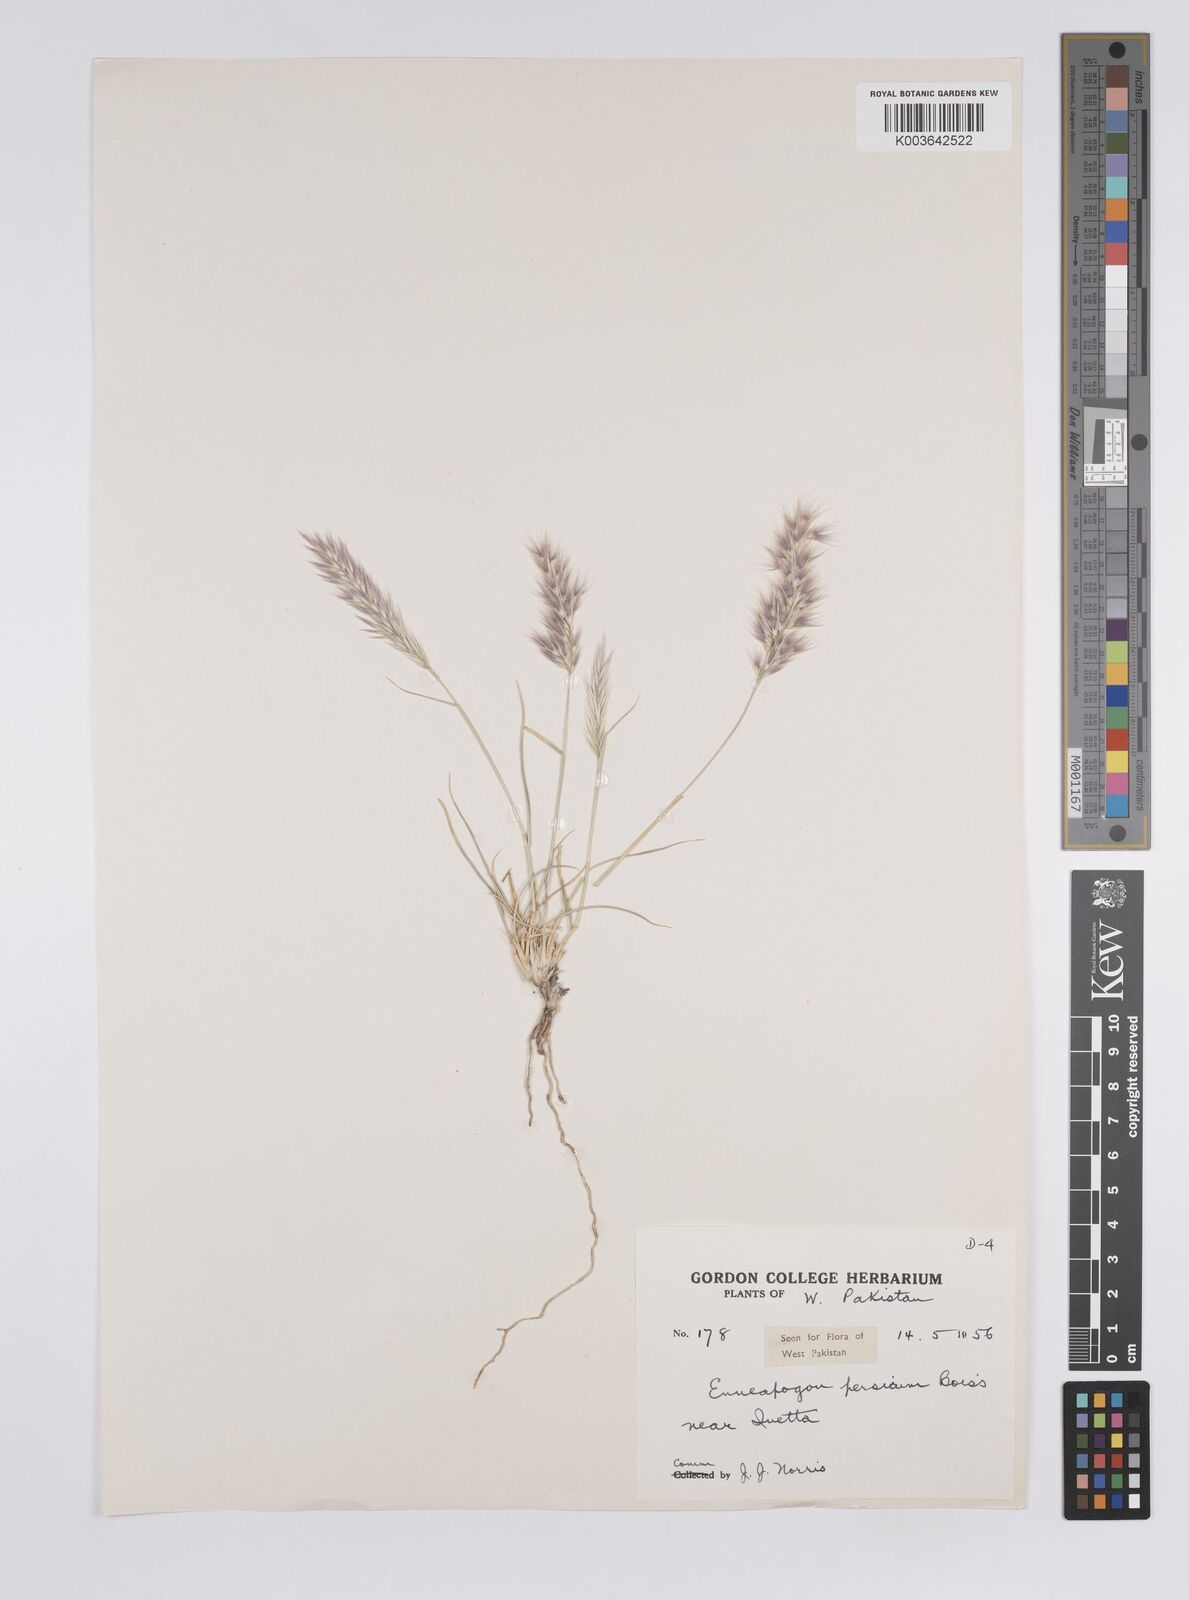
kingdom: Plantae
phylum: Tracheophyta
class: Liliopsida
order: Poales
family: Poaceae
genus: Enneapogon
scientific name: Enneapogon persicus
